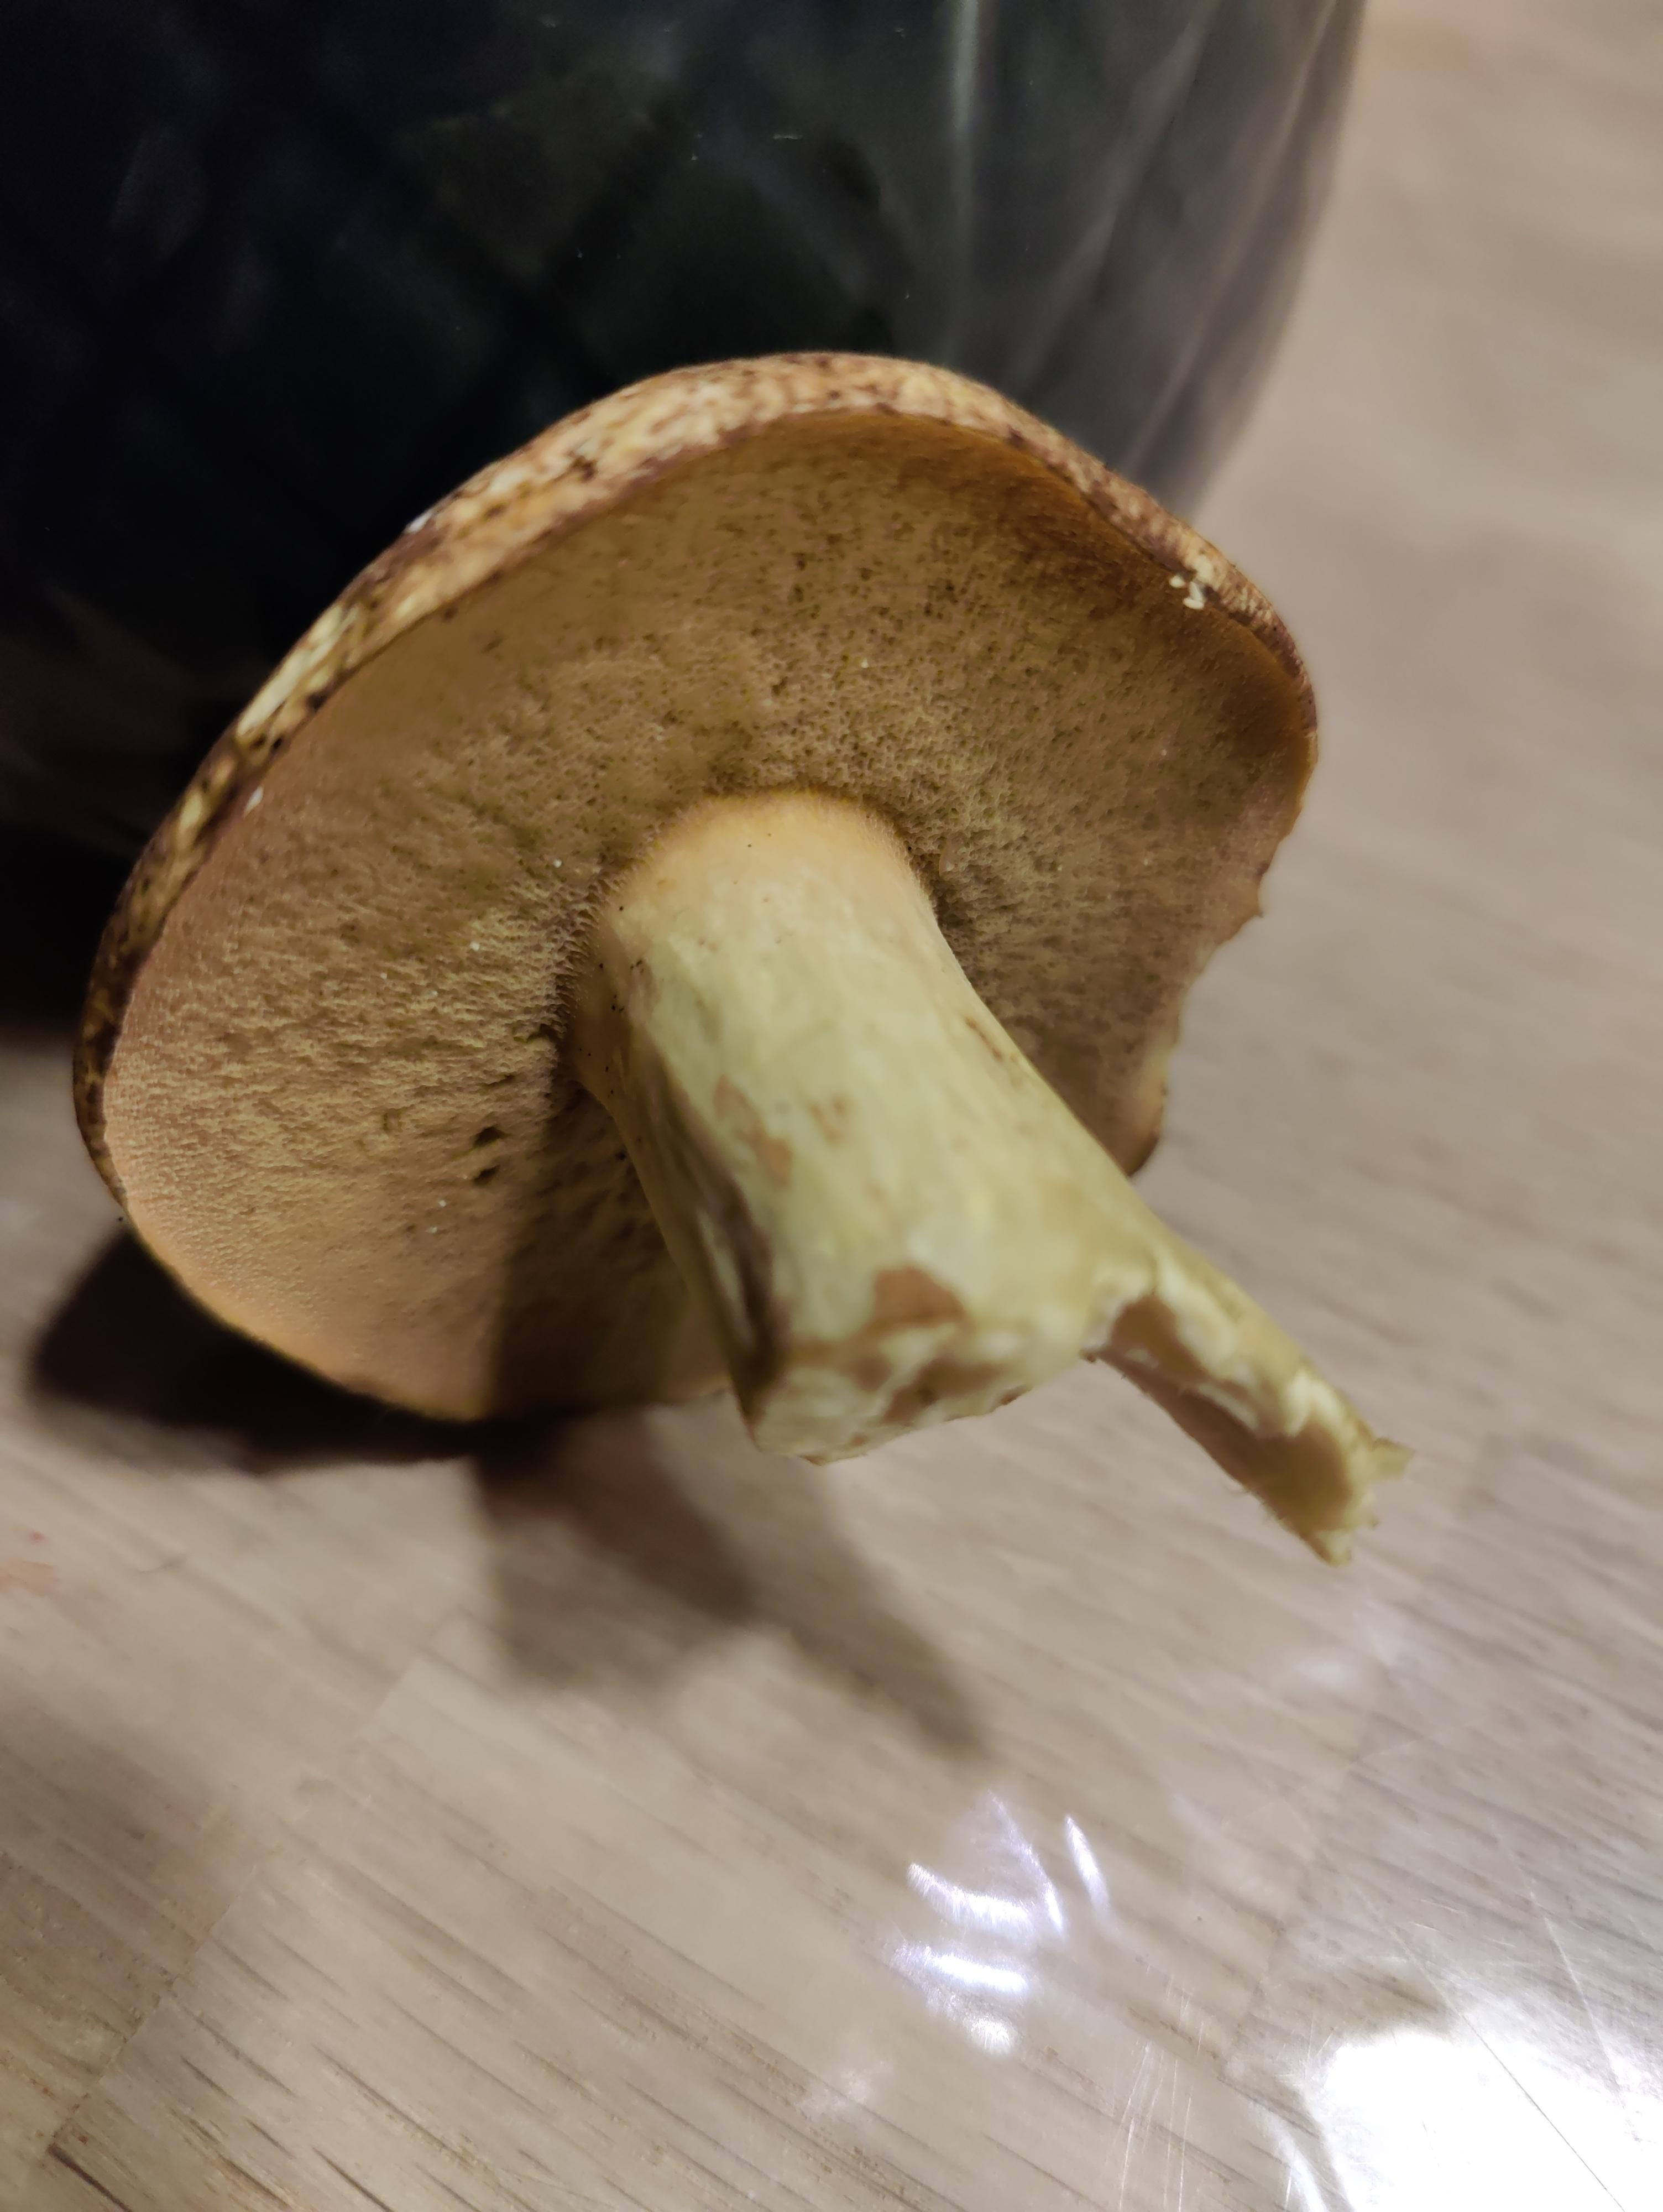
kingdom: Fungi
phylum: Basidiomycota
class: Agaricomycetes
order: Boletales
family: Suillaceae
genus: Suillus
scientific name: Suillus variegatus
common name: broget slimrørhat
